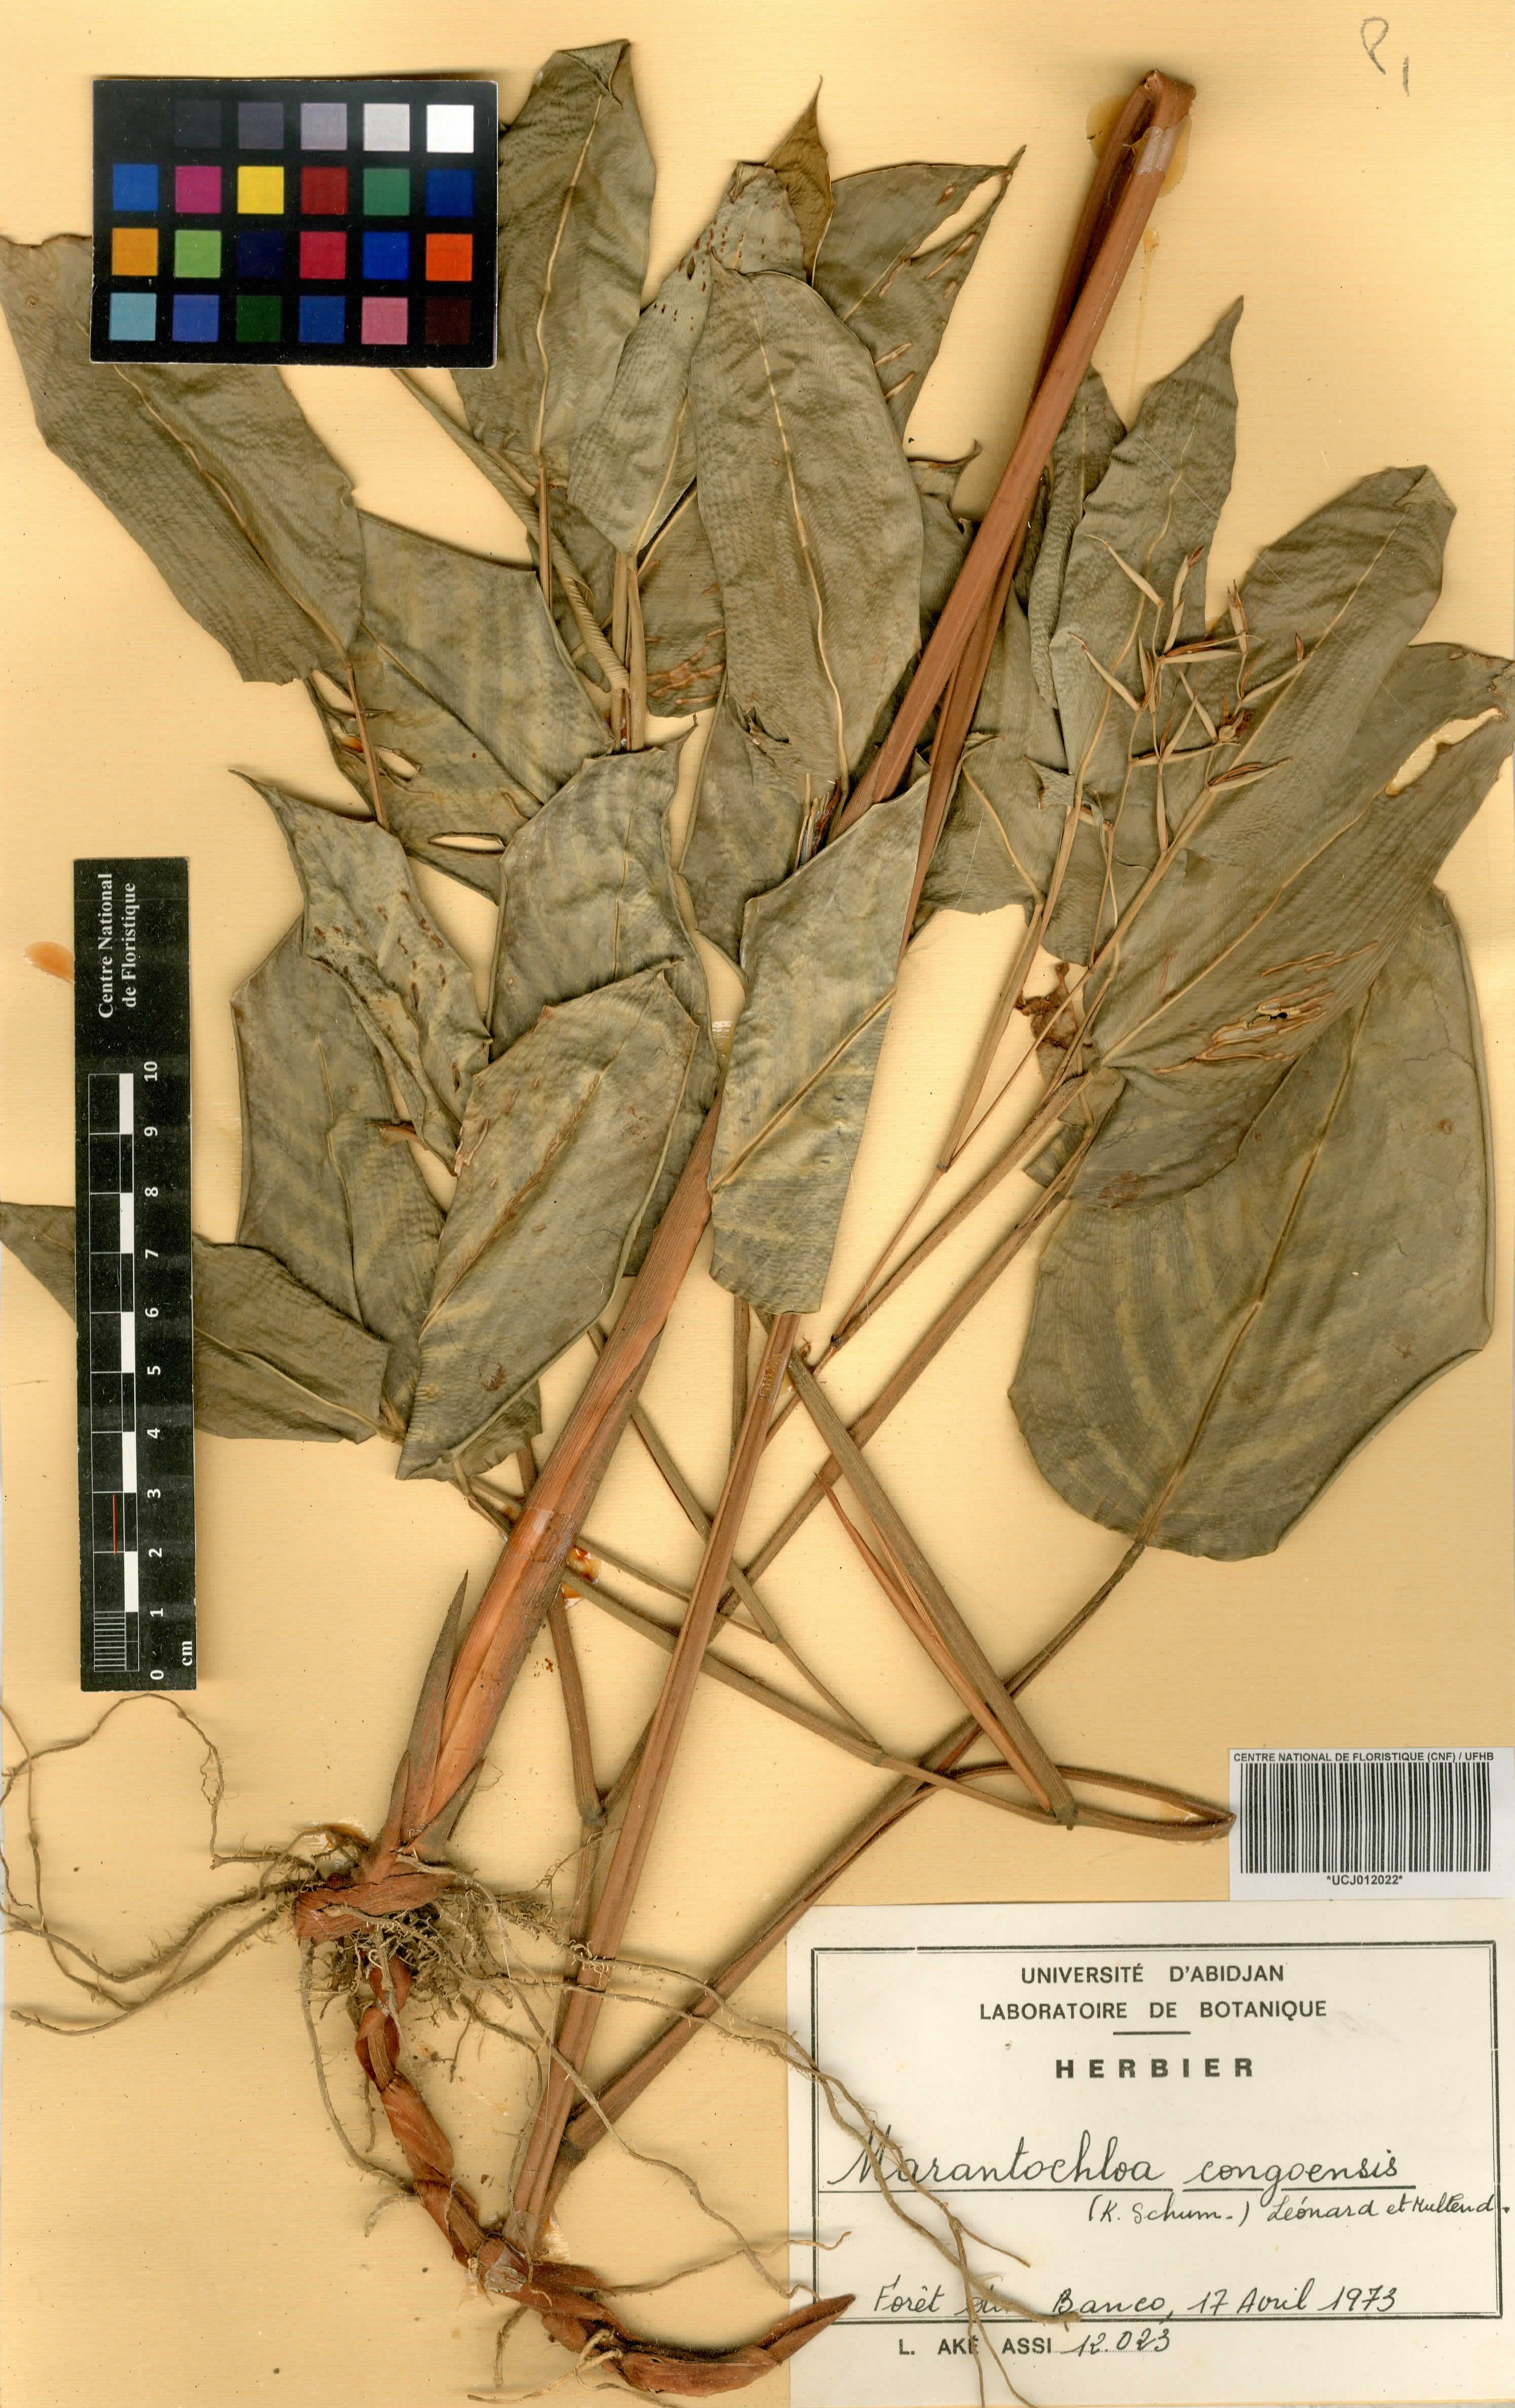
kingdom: Plantae
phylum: Tracheophyta
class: Liliopsida
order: Zingiberales
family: Marantaceae
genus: Marantochloa
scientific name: Marantochloa congensis
